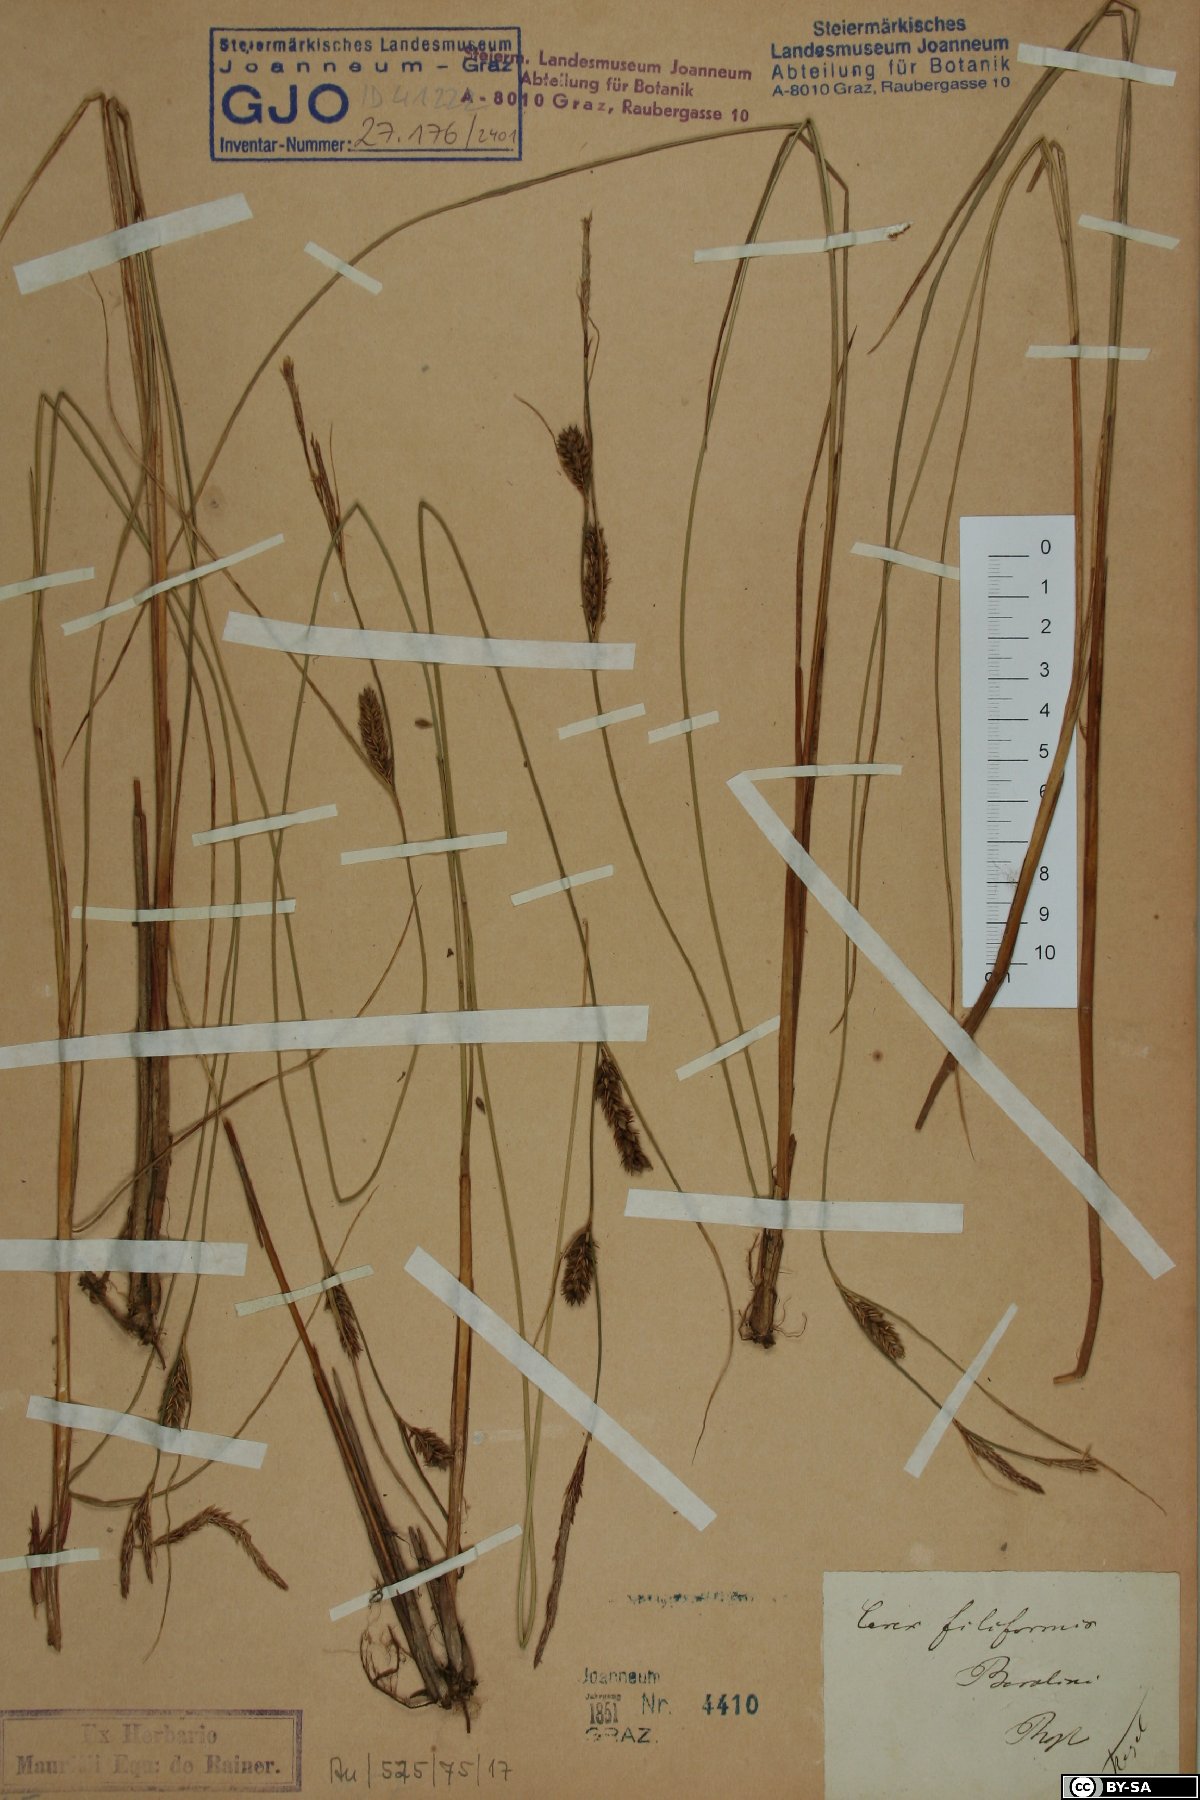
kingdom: Plantae
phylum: Tracheophyta
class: Liliopsida
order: Poales
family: Cyperaceae
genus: Carex
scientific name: Carex montana
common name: Soft-leaved sedge
